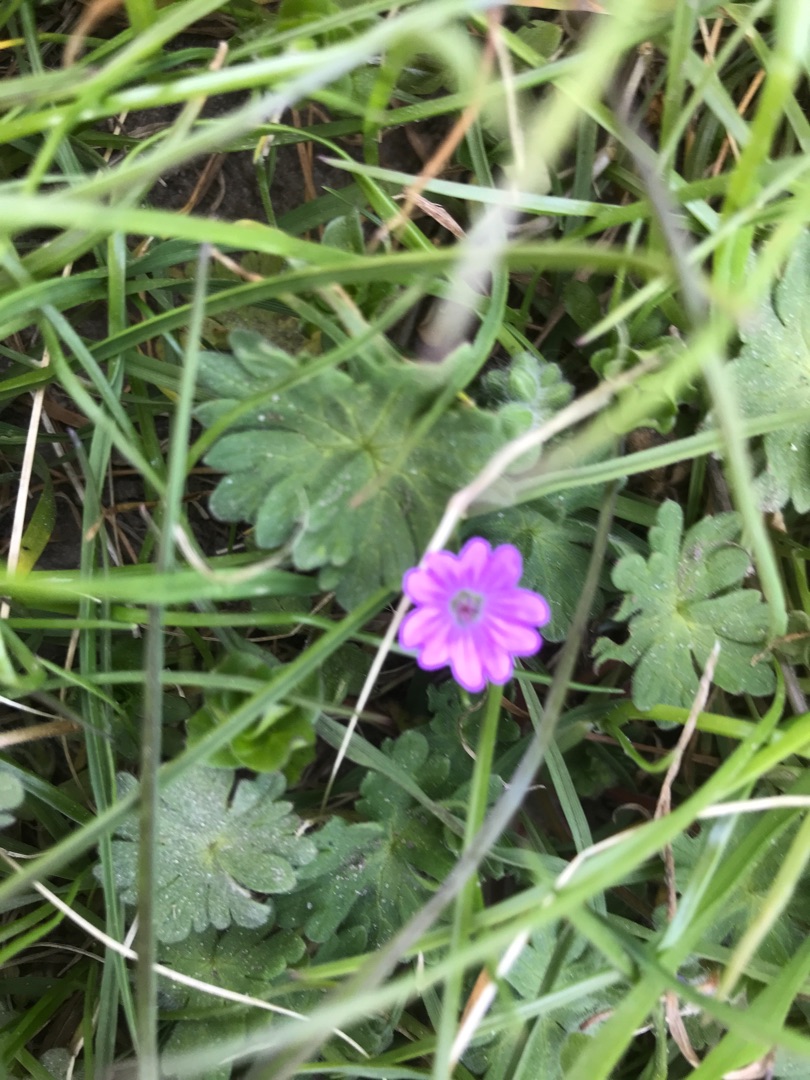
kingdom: Plantae
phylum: Tracheophyta
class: Magnoliopsida
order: Geraniales
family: Geraniaceae
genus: Geranium
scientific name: Geranium molle
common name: Blød storkenæb
